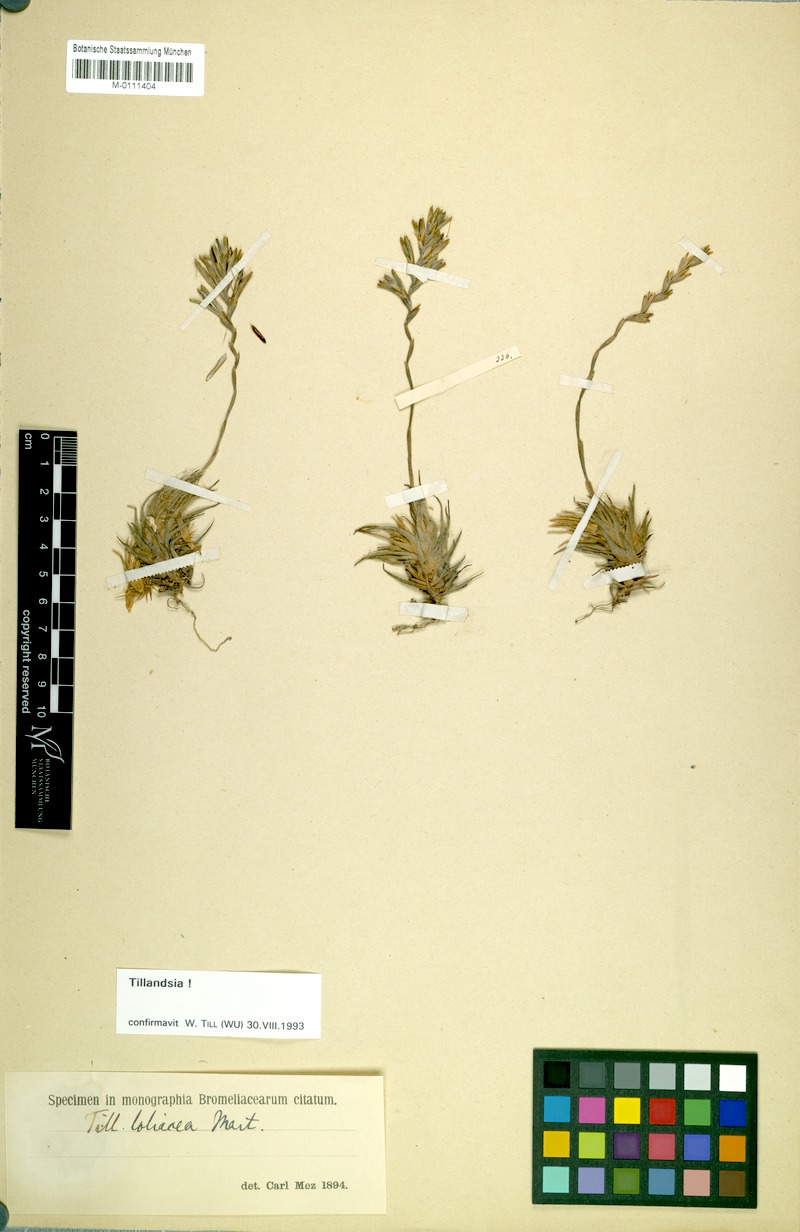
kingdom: Plantae
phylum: Tracheophyta
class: Liliopsida
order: Poales
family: Bromeliaceae
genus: Tillandsia
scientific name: Tillandsia loliacea
